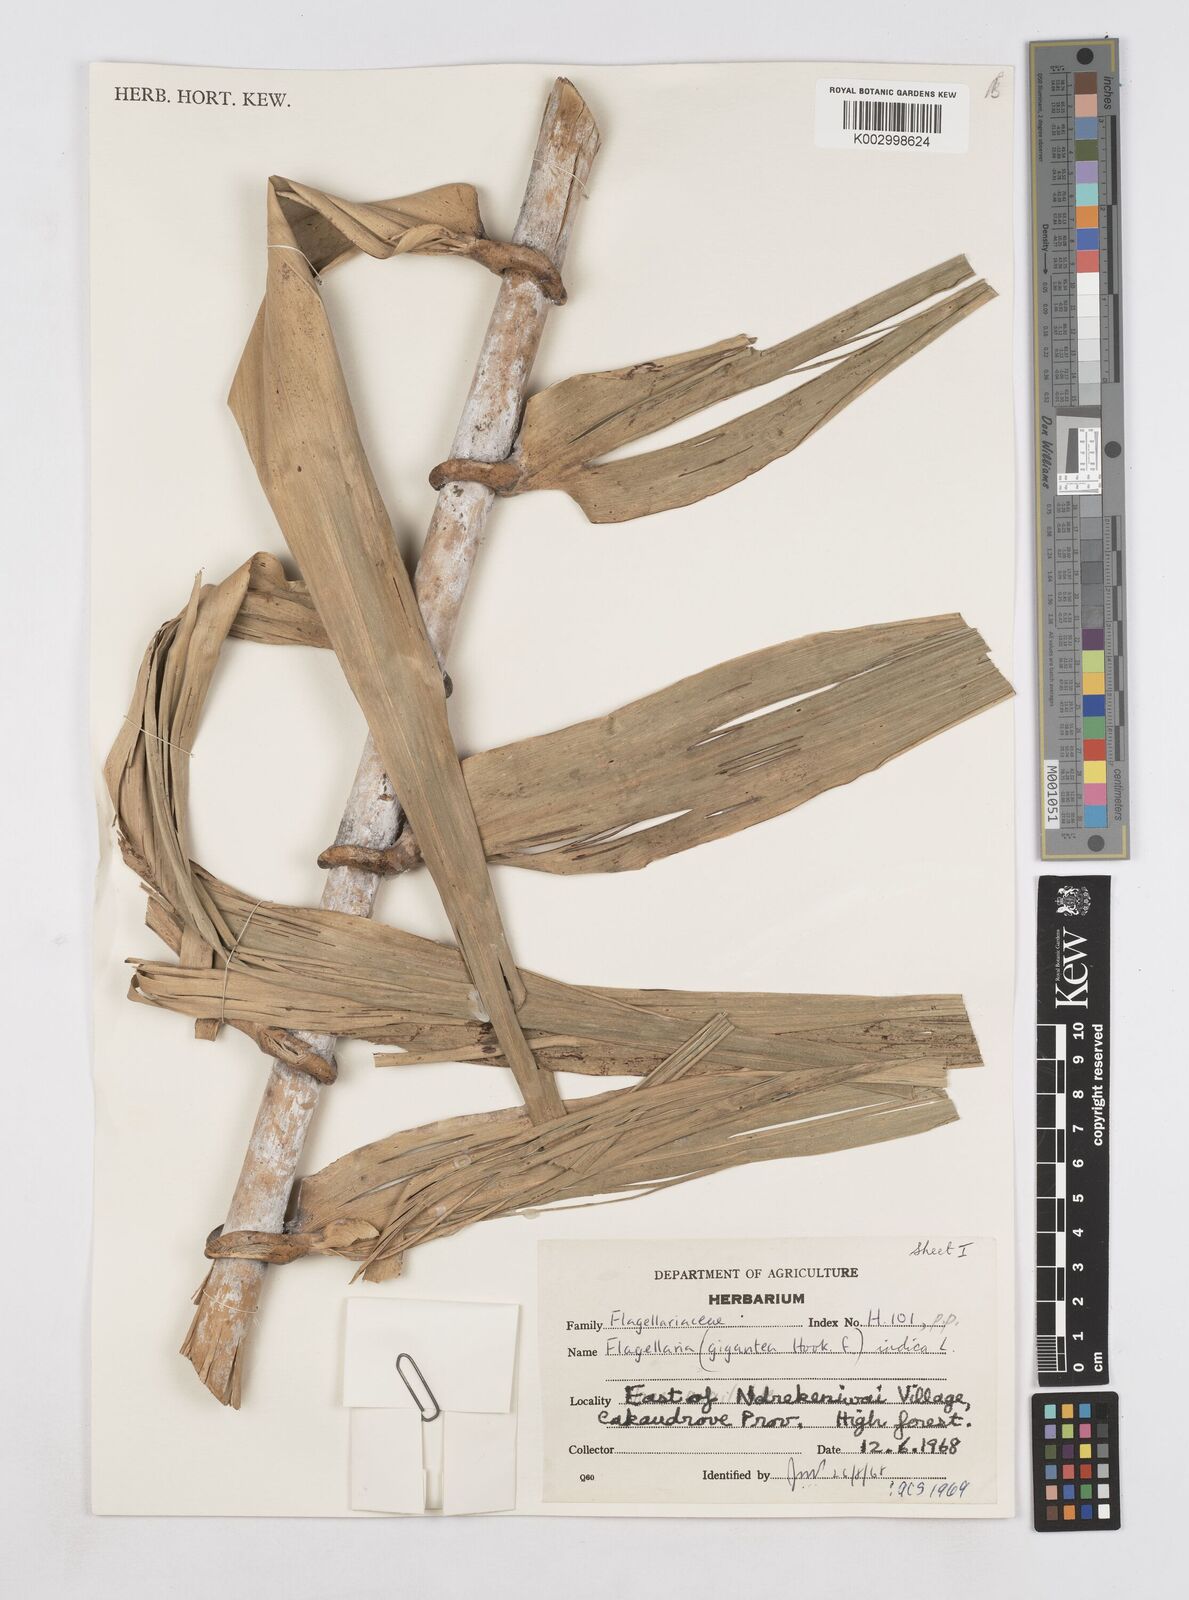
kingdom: Plantae
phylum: Tracheophyta
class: Liliopsida
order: Poales
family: Flagellariaceae
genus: Flagellaria
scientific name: Flagellaria gigantea
